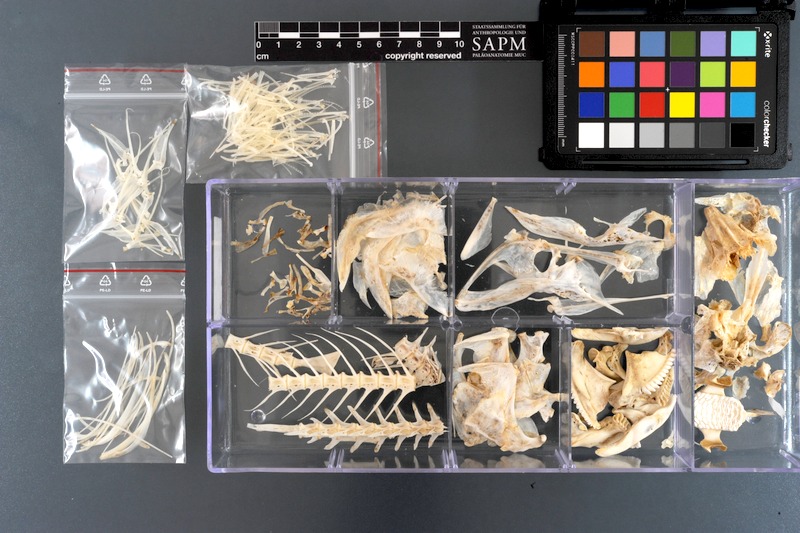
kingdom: Animalia
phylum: Chordata
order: Perciformes
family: Scaridae
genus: Scarus
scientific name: Scarus ghobban
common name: Blue-barred parrotfish
